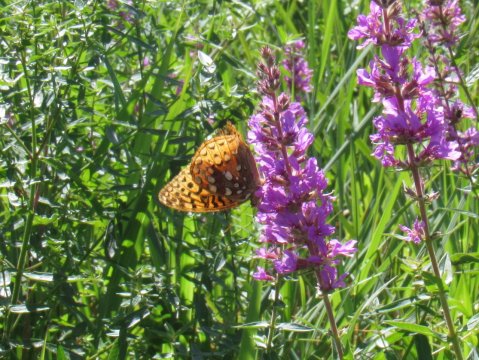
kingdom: Animalia
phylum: Arthropoda
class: Insecta
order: Lepidoptera
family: Nymphalidae
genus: Speyeria
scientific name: Speyeria cybele
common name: Great Spangled Fritillary
